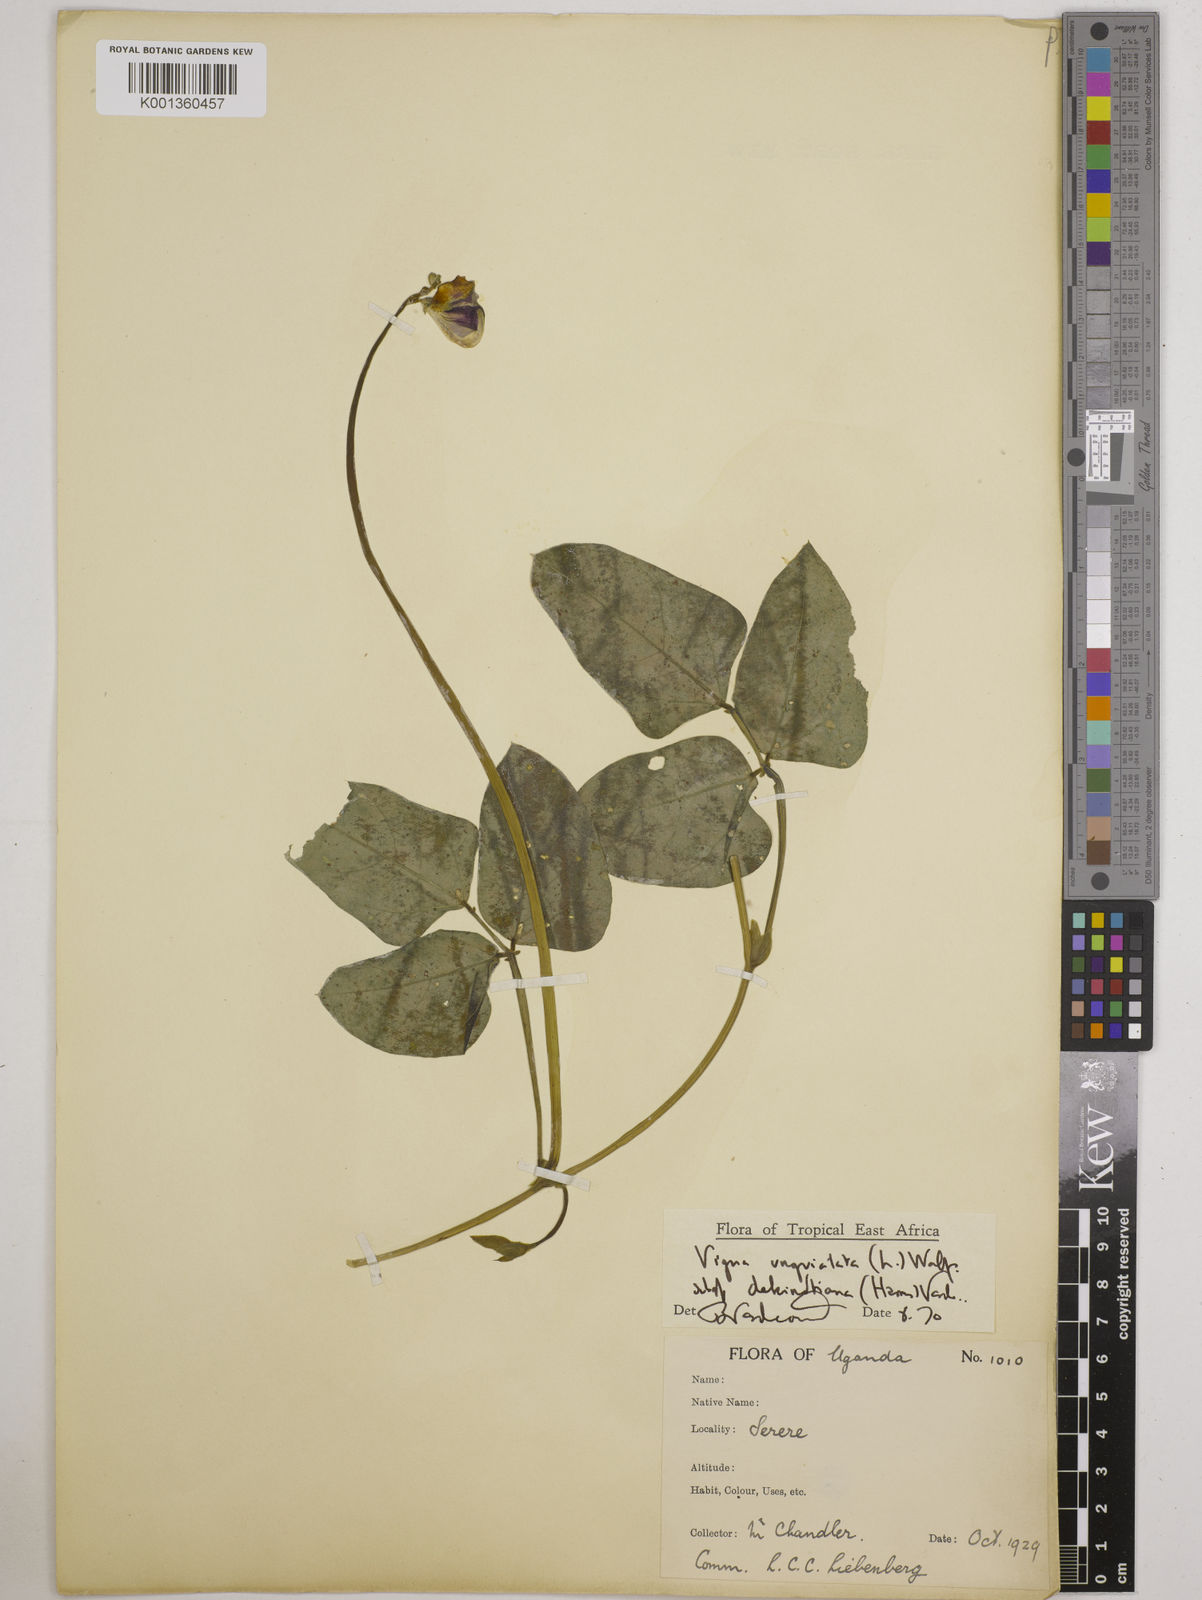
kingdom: Plantae
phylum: Tracheophyta
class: Magnoliopsida
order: Fabales
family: Fabaceae
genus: Vigna
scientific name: Vigna unguiculata
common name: Cowpea
